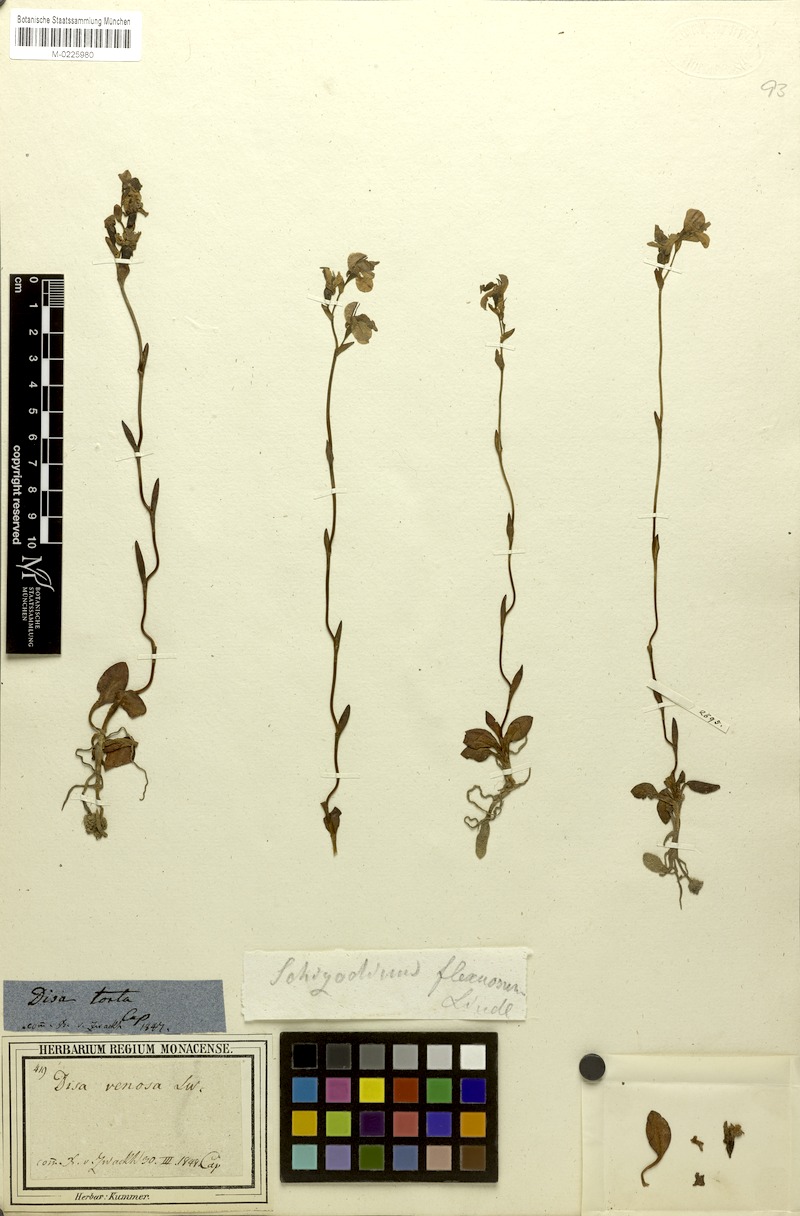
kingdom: Plantae
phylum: Tracheophyta
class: Liliopsida
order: Asparagales
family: Orchidaceae
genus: Disa
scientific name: Disa flexuosa
